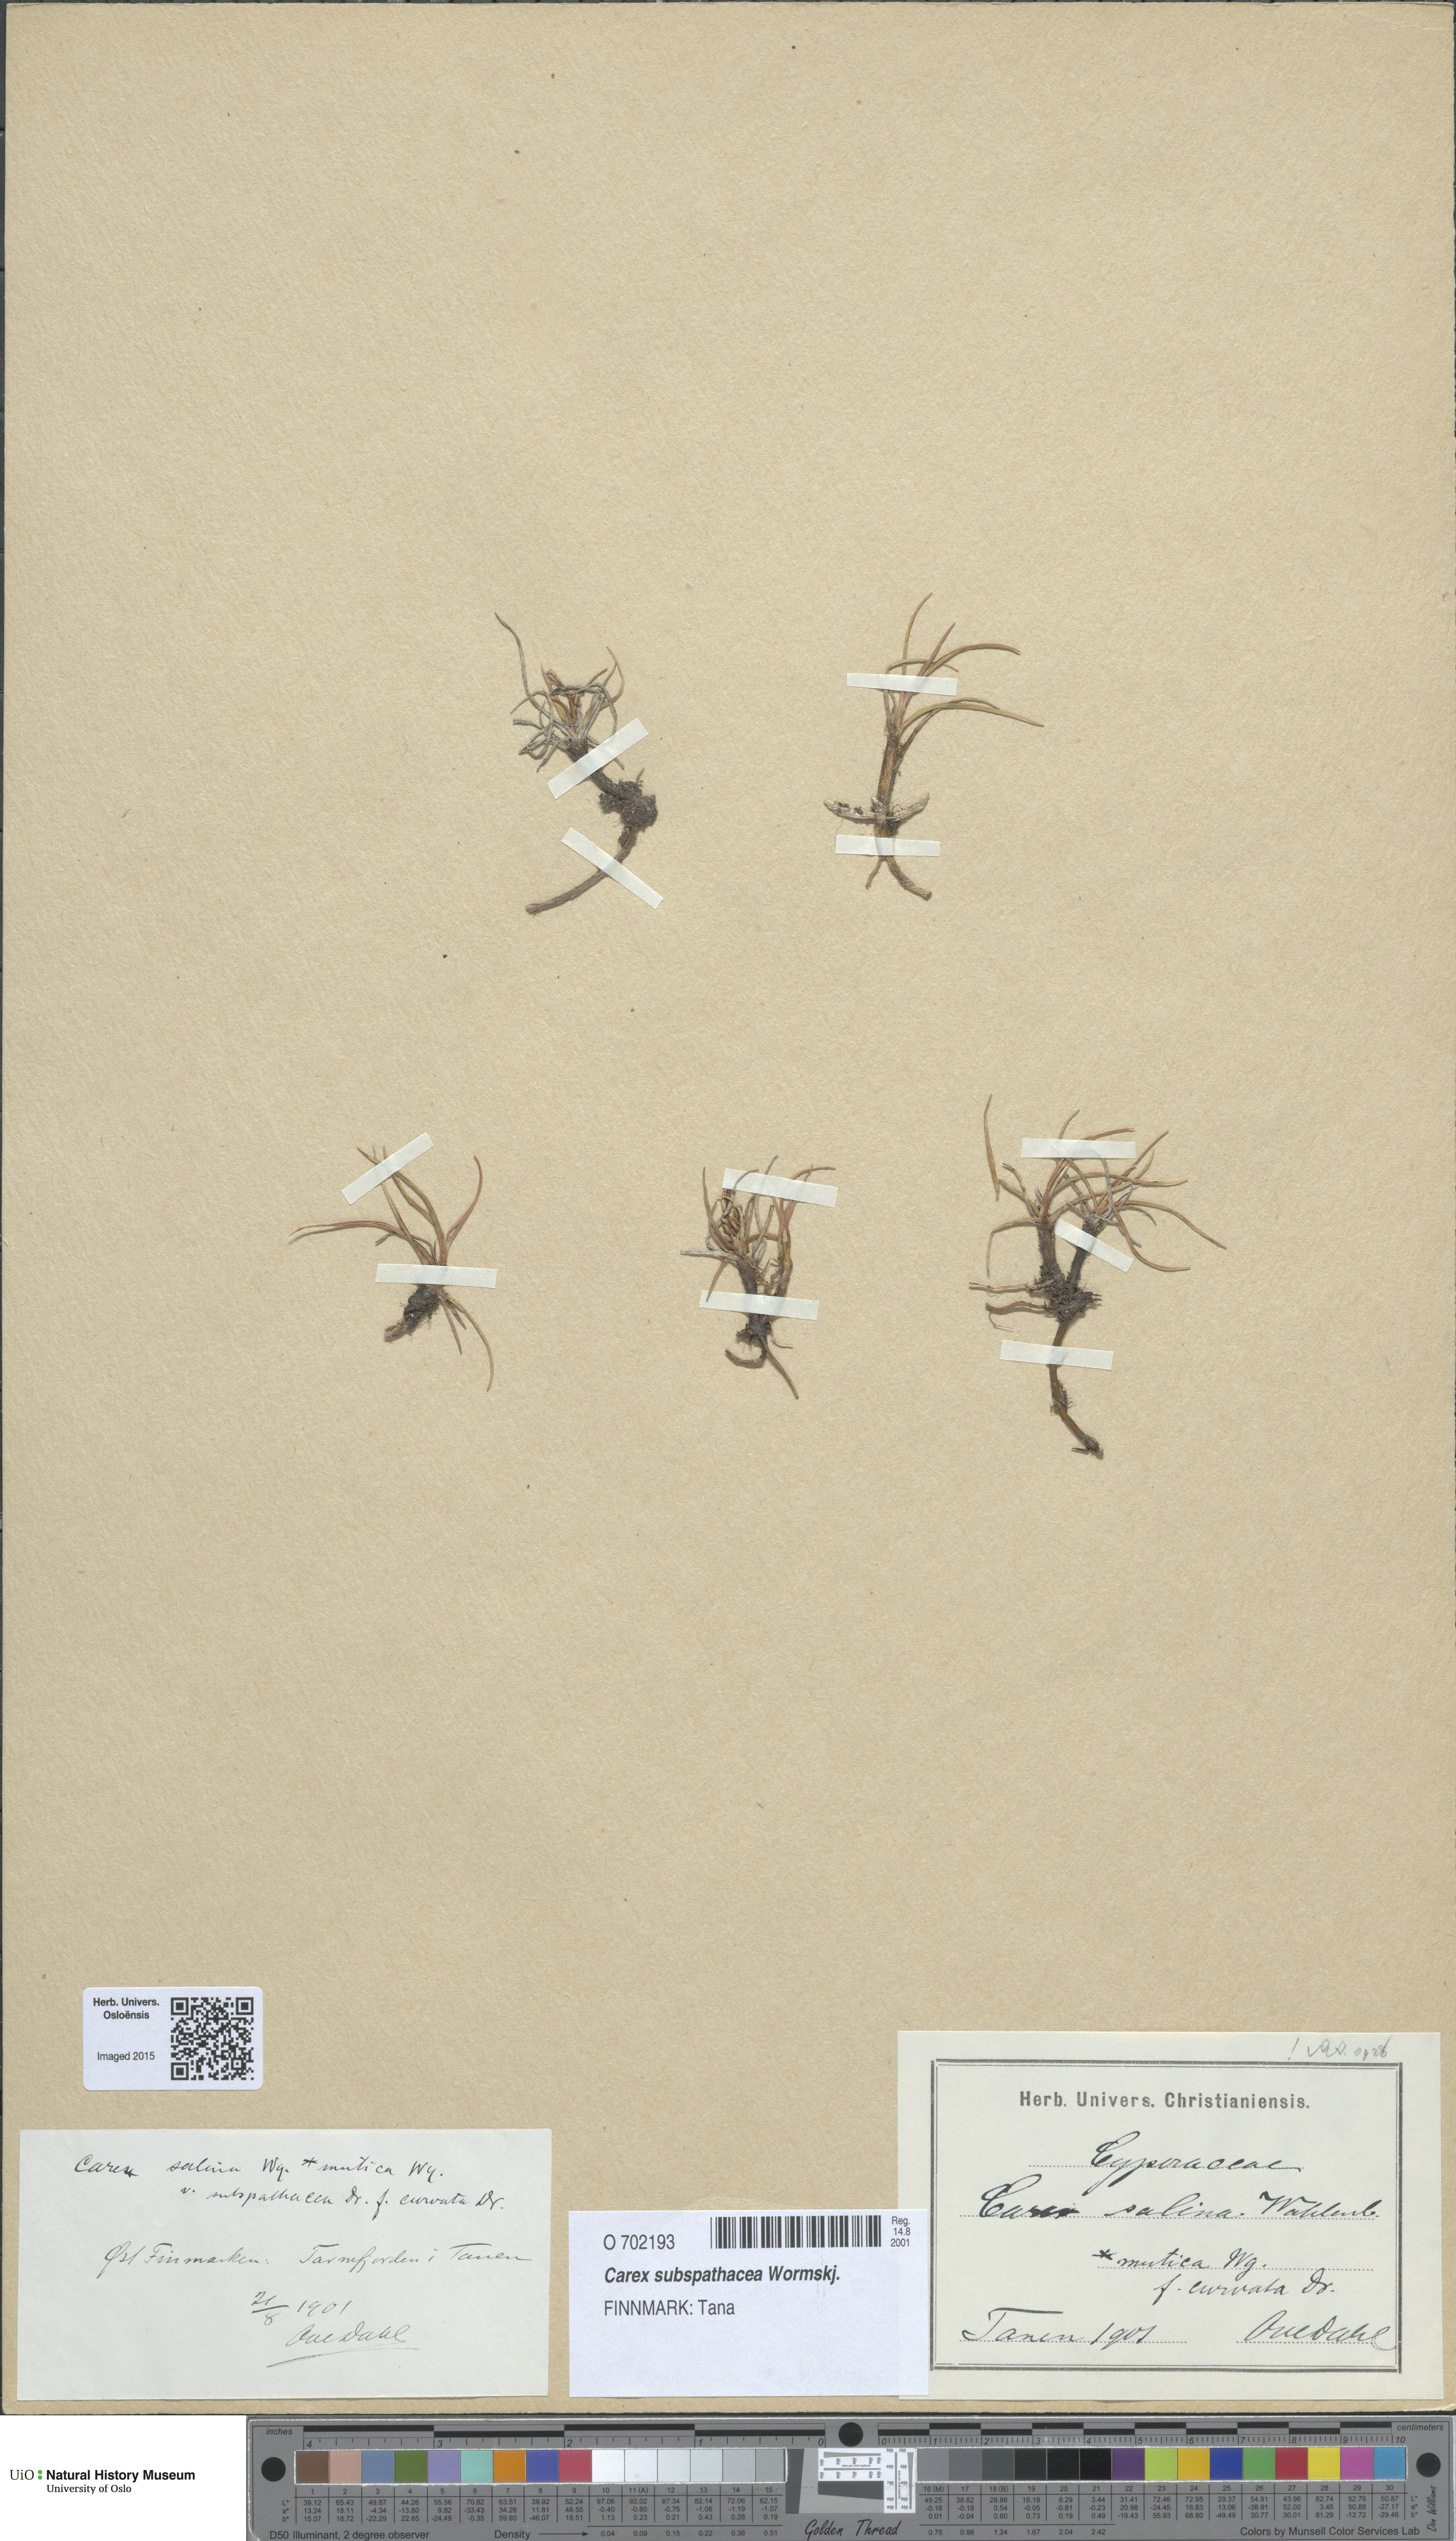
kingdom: Plantae
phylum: Tracheophyta
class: Liliopsida
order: Poales
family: Cyperaceae
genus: Carex
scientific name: Carex subspathacea
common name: Hoppner's sedge
